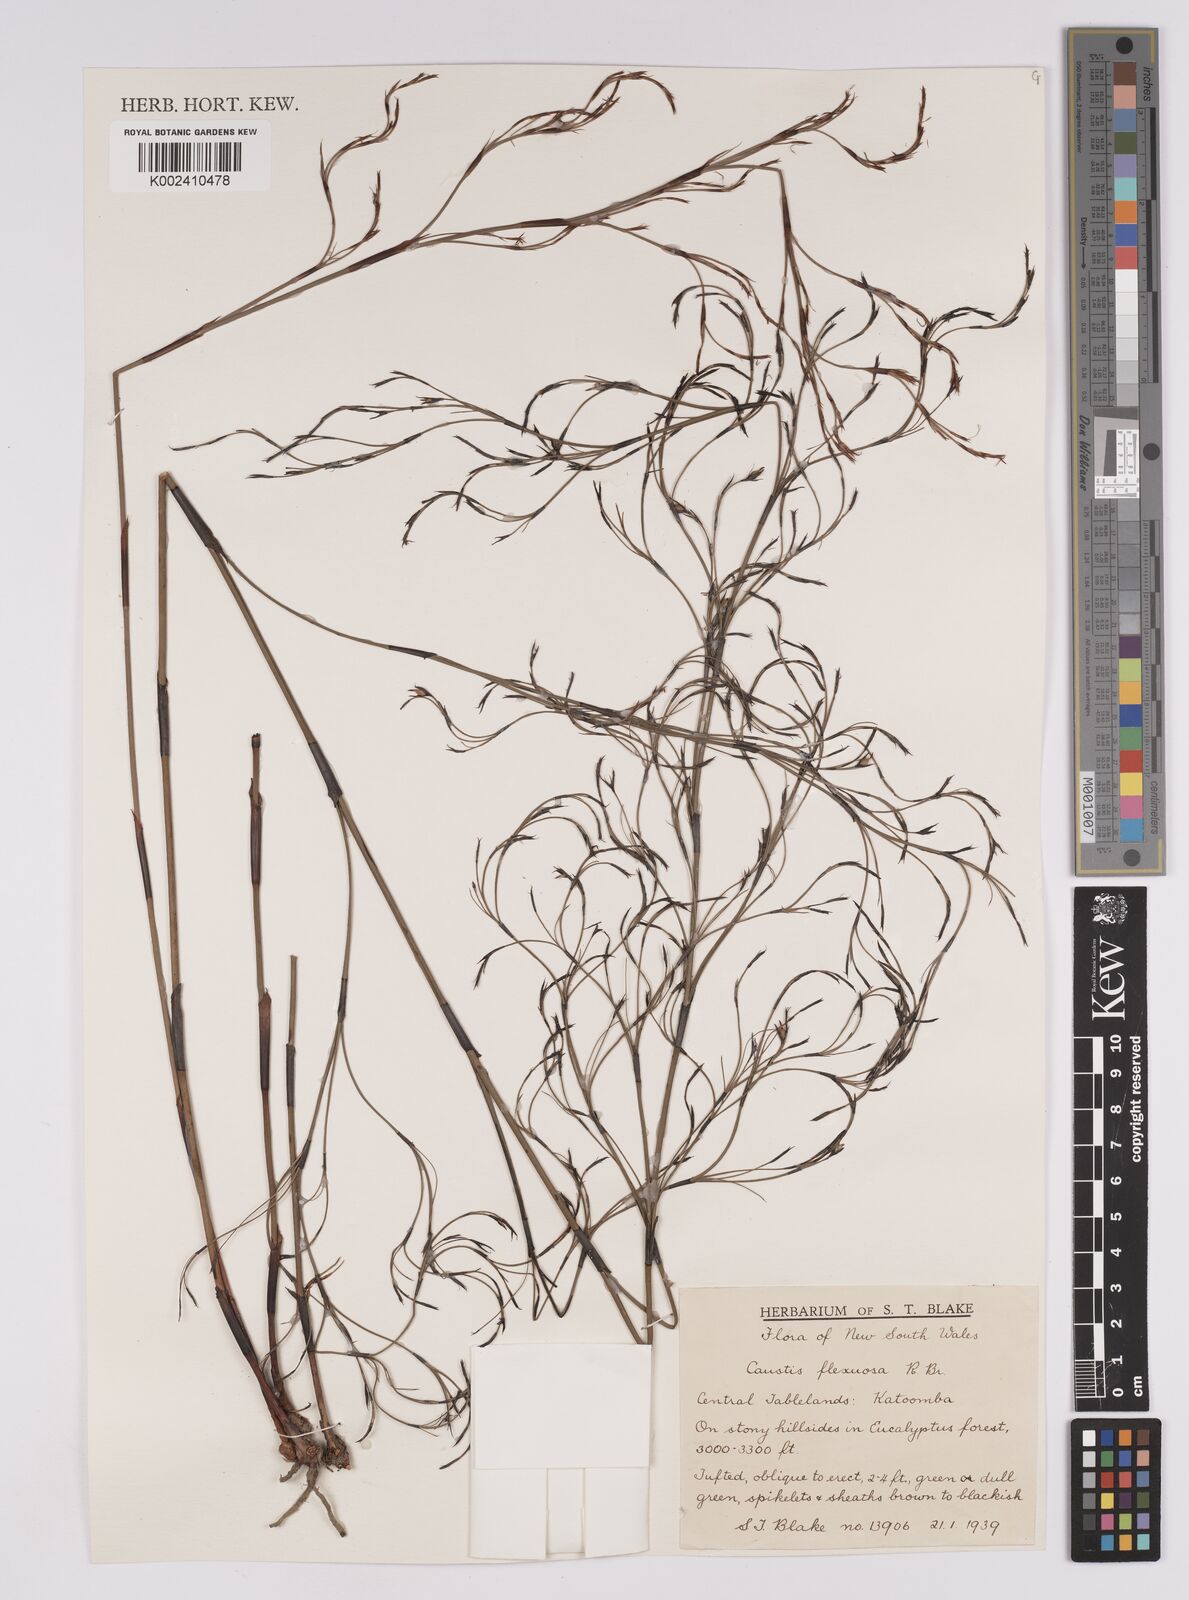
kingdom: Plantae
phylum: Tracheophyta
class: Liliopsida
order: Poales
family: Cyperaceae
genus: Caustis
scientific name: Caustis flexuosa
